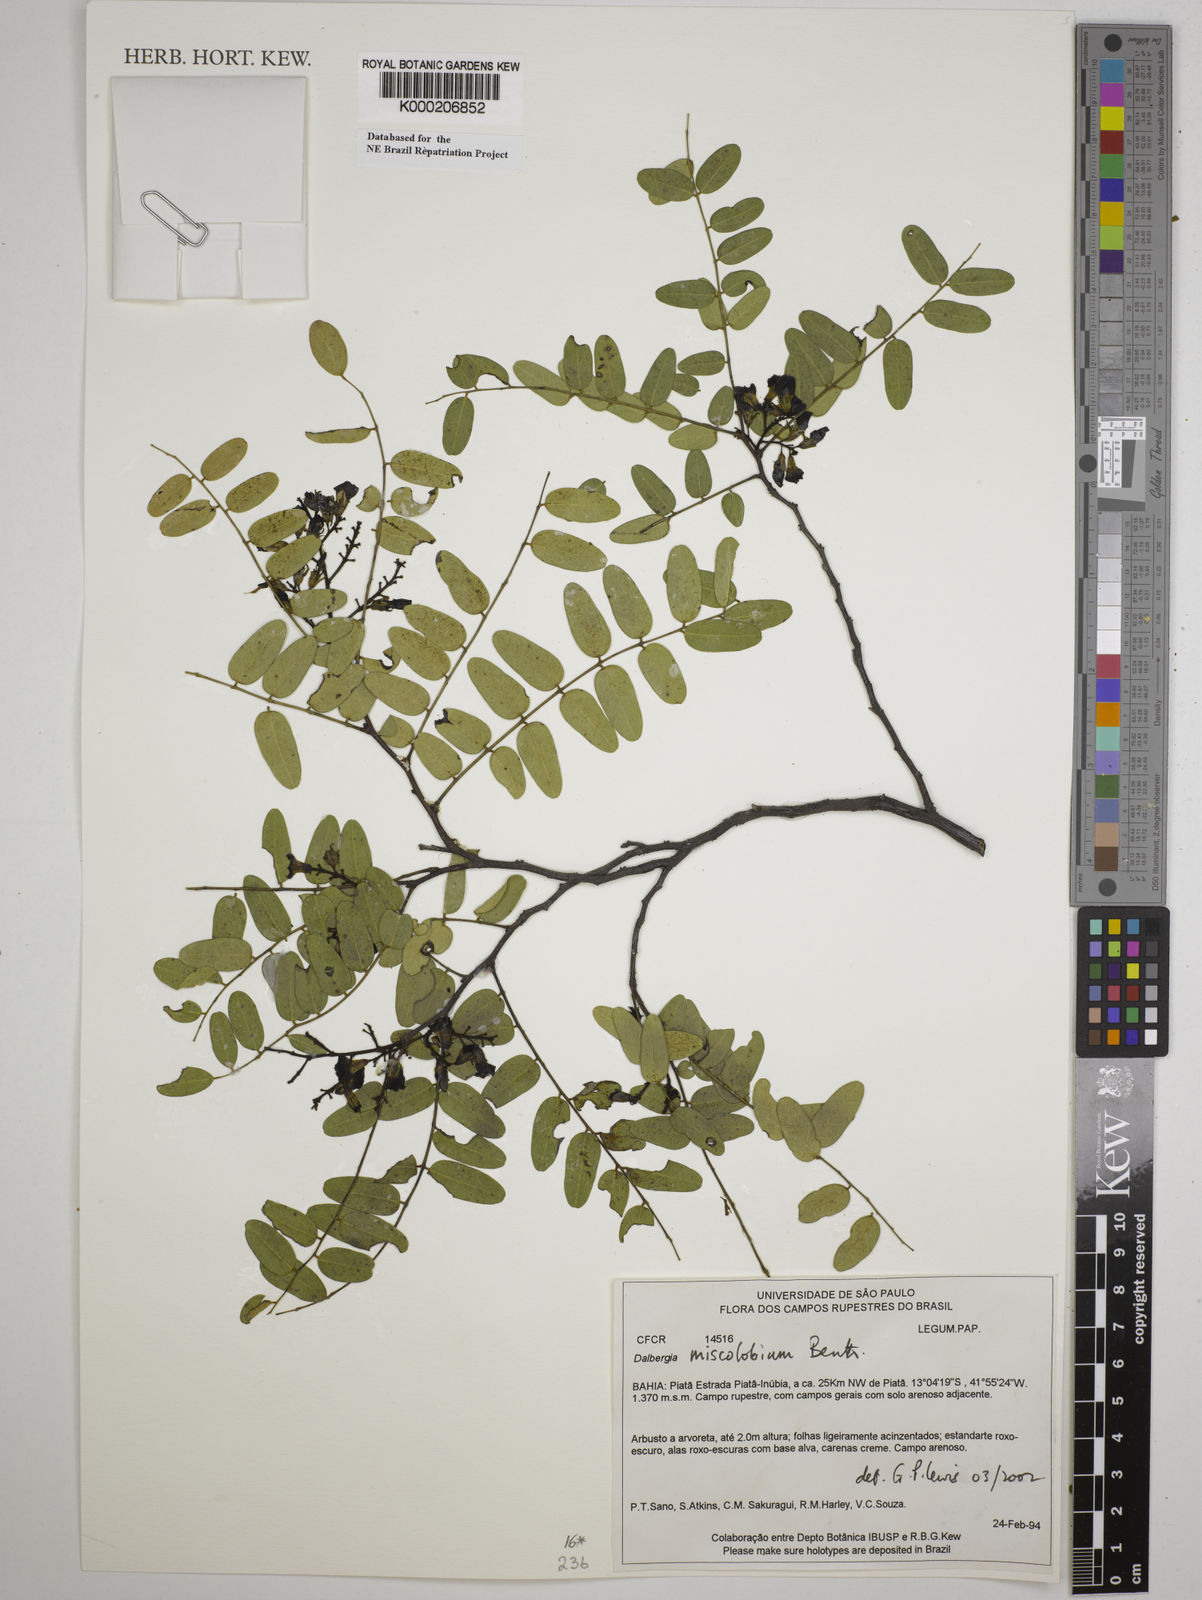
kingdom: Plantae
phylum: Tracheophyta
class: Magnoliopsida
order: Fabales
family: Fabaceae
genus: Dalbergia
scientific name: Dalbergia miscolobium
